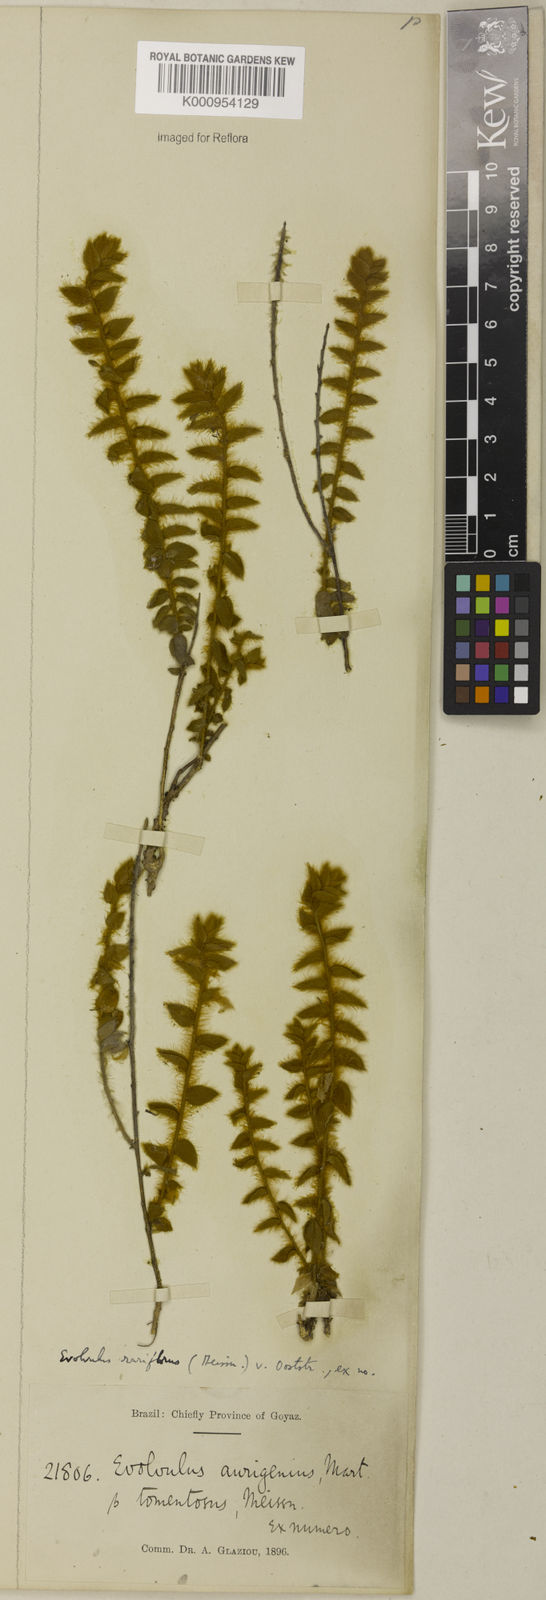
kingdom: Plantae
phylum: Tracheophyta
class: Magnoliopsida
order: Solanales
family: Convolvulaceae
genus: Evolvulus
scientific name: Evolvulus rariflorus
